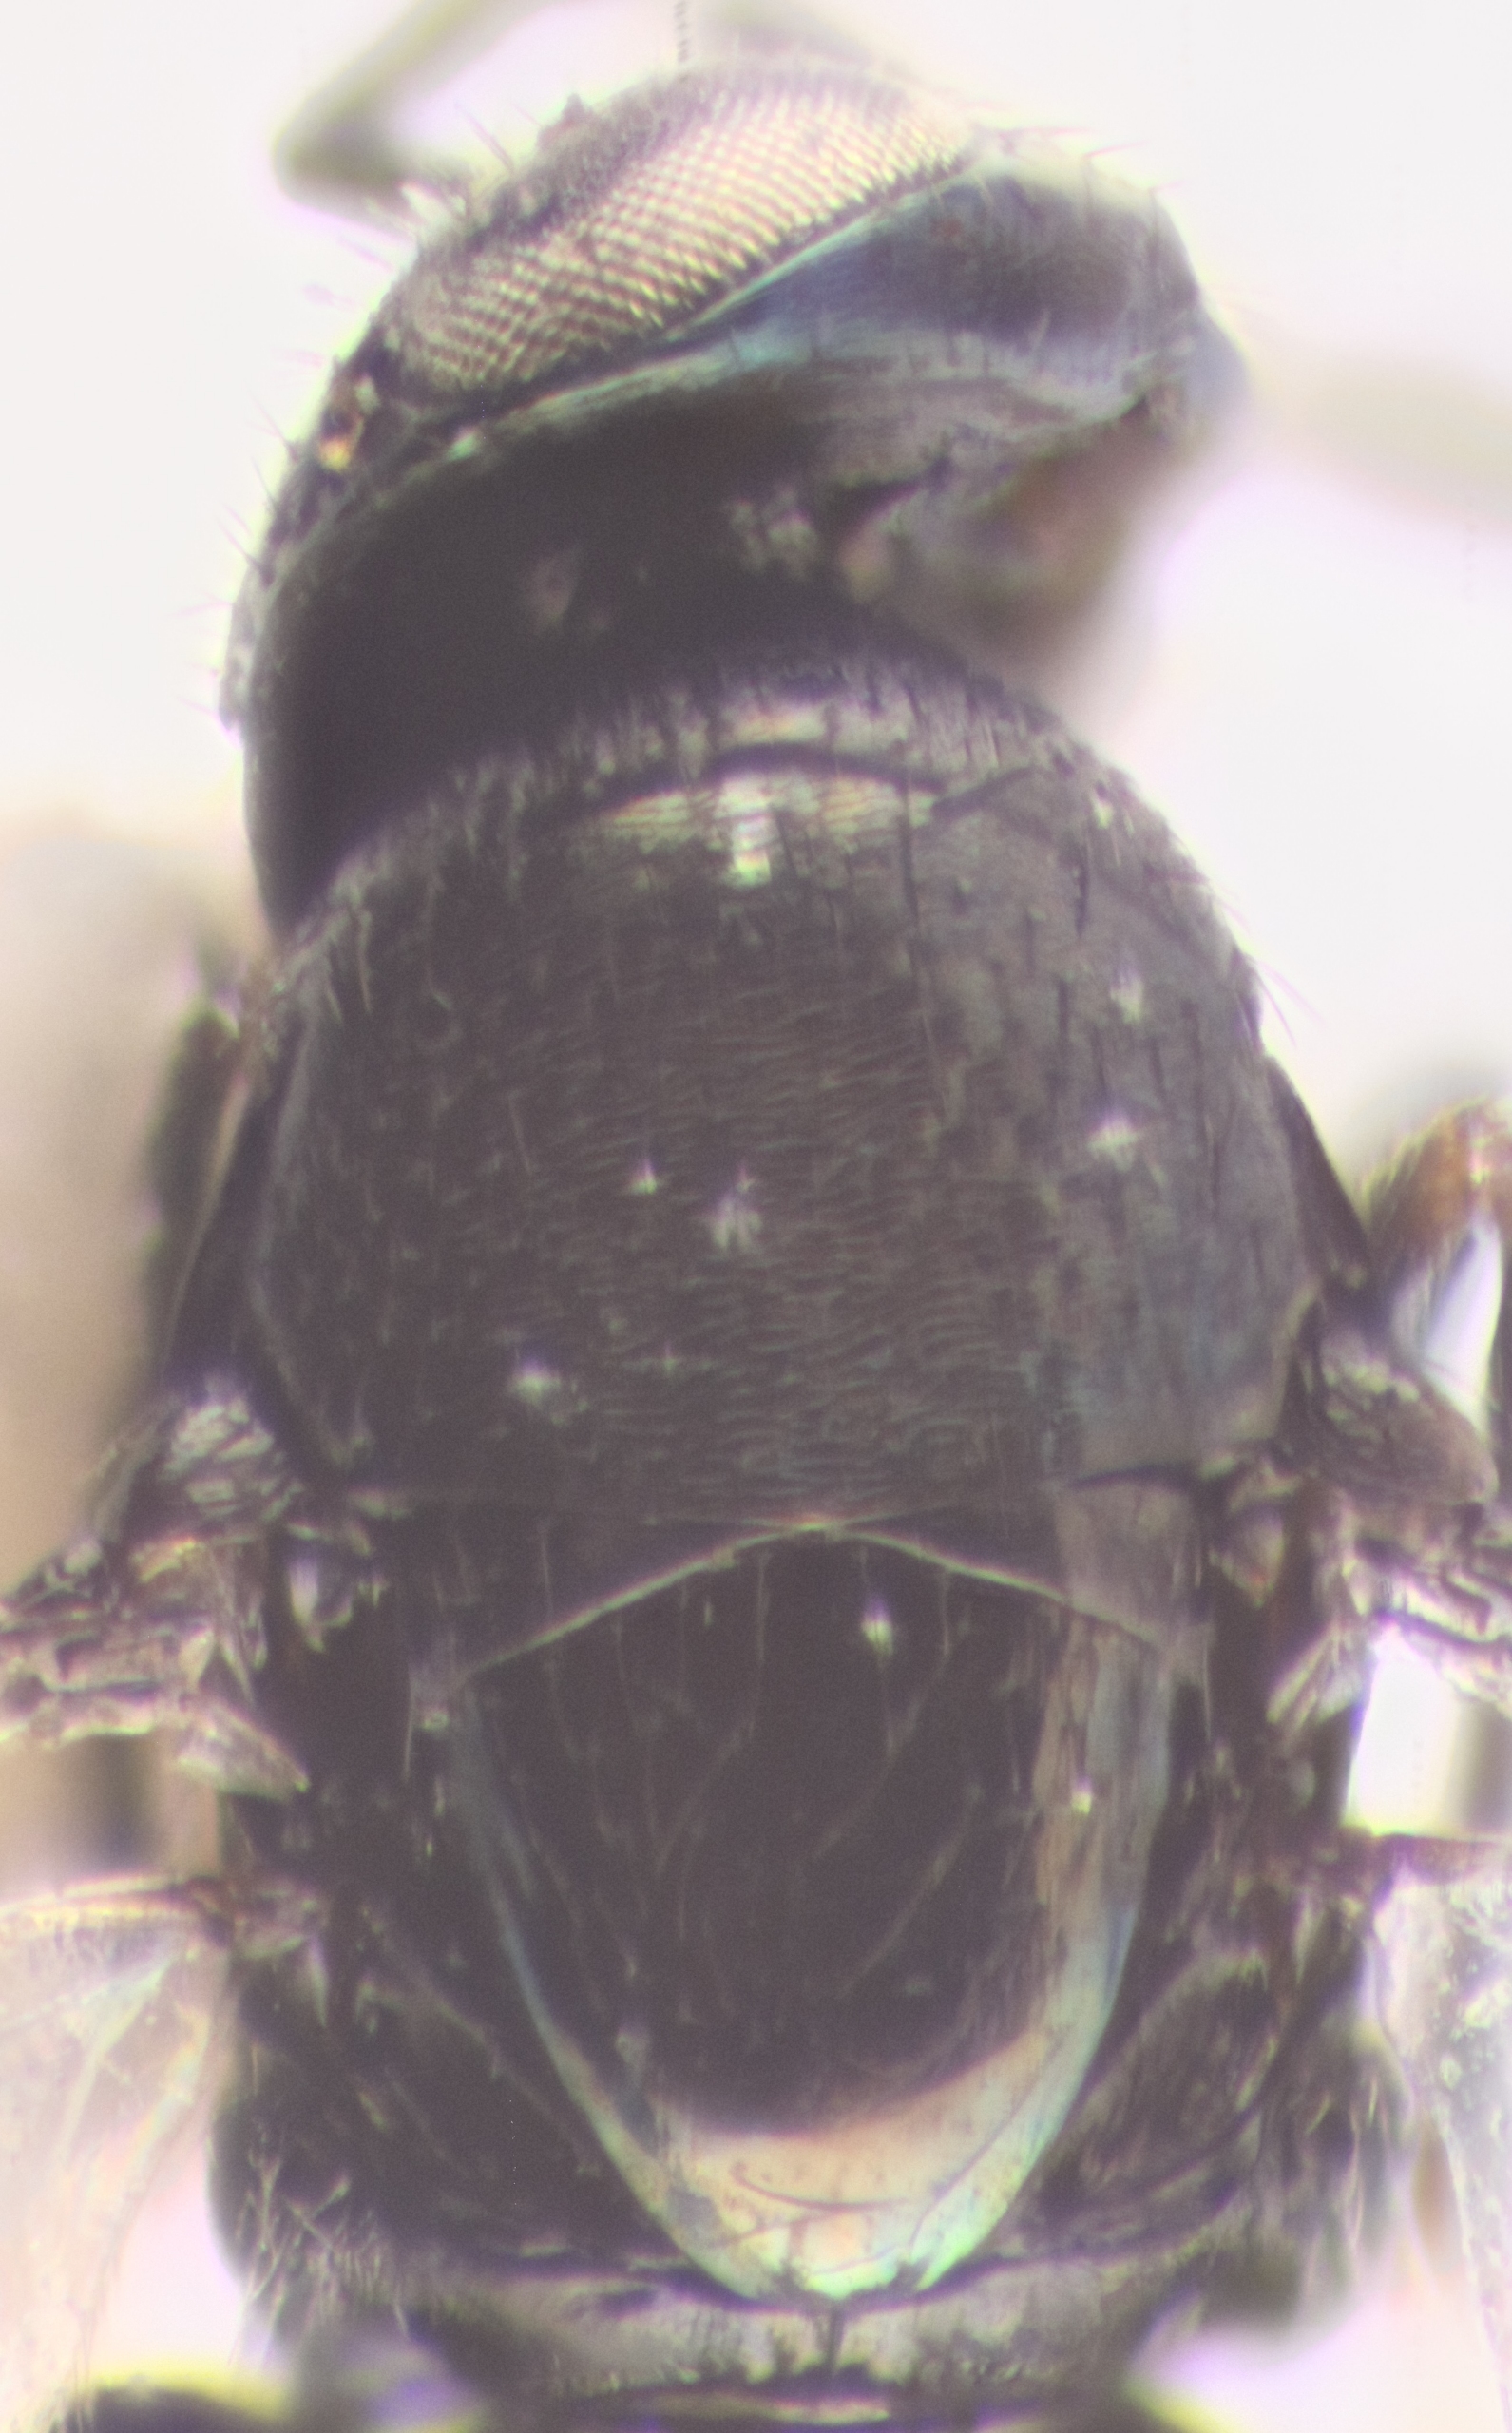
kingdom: Animalia
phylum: Arthropoda
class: Insecta
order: Hymenoptera
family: Encyrtidae
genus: Cerchysiella
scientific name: Cerchysiella planiscutellum
